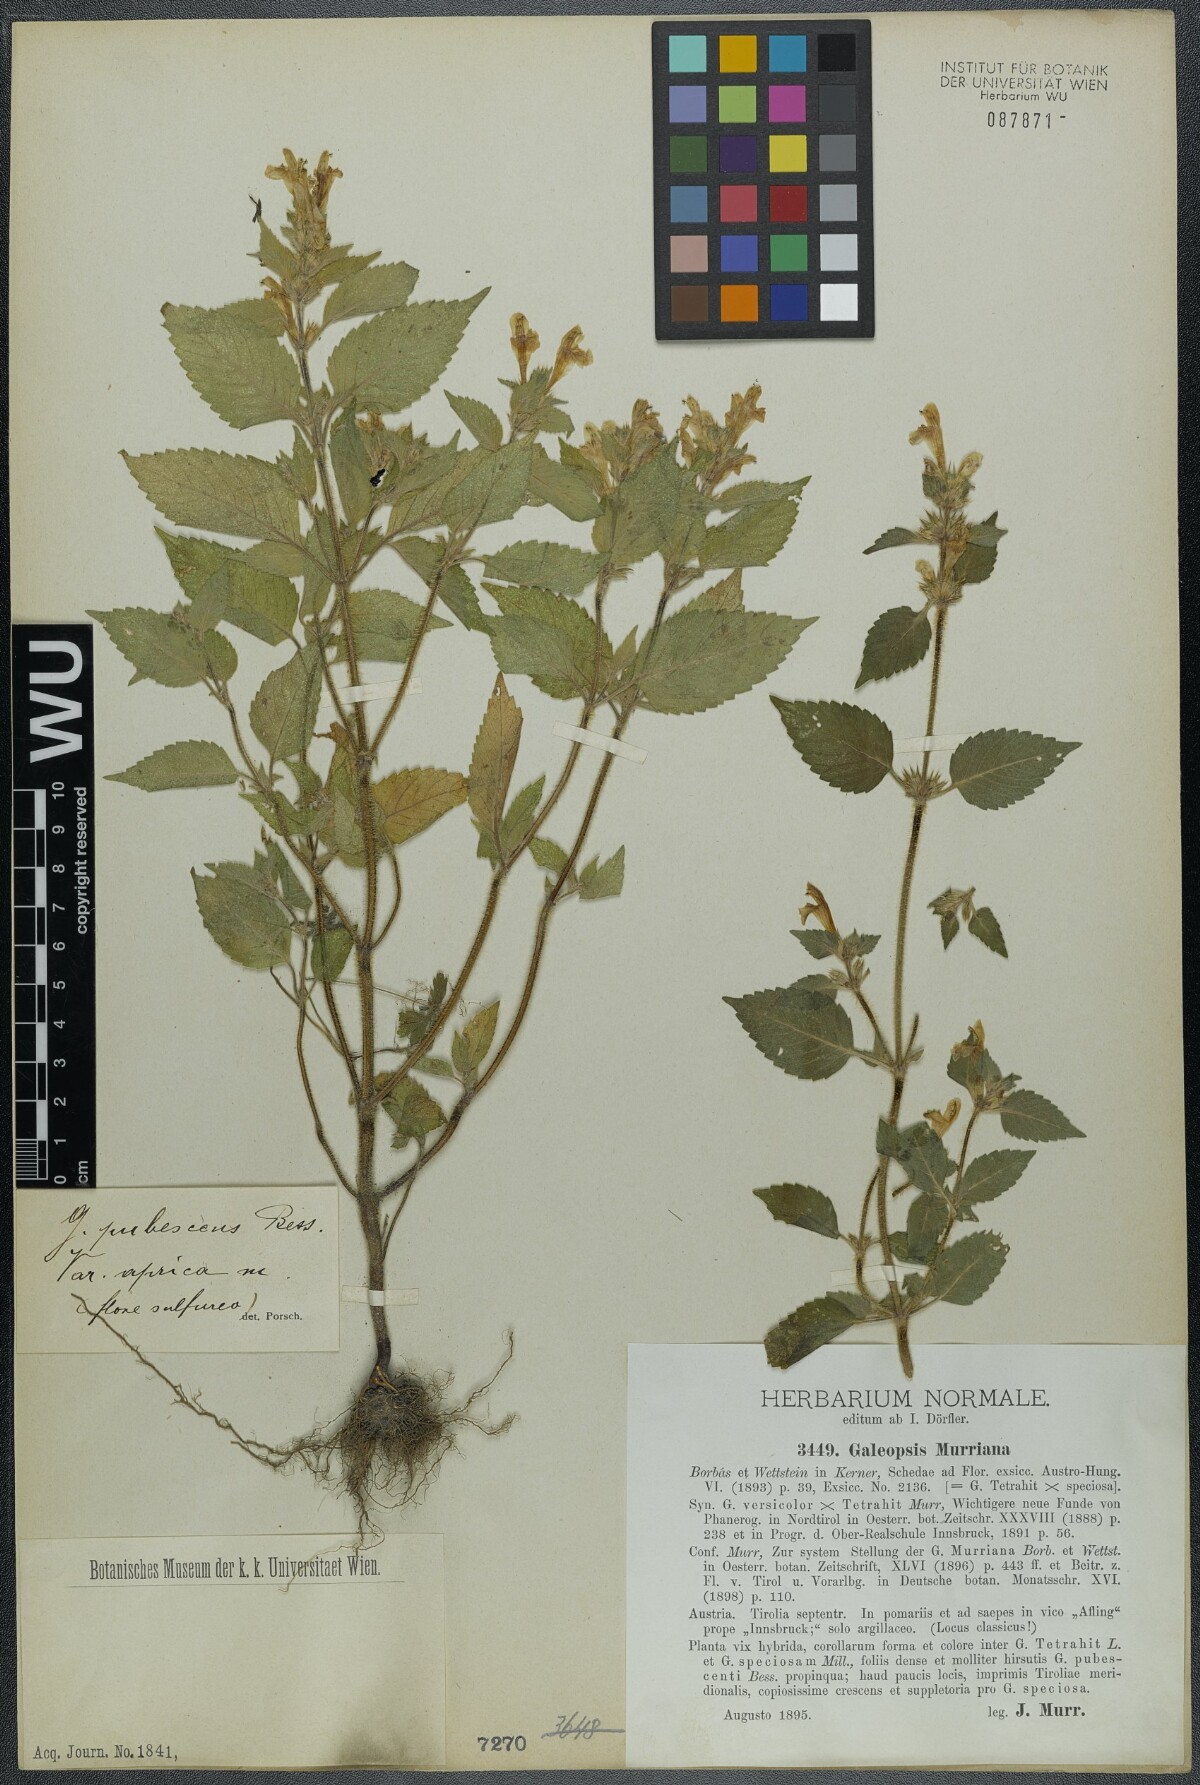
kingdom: Plantae
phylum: Tracheophyta
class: Magnoliopsida
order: Lamiales
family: Lamiaceae
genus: Galeopsis
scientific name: Galeopsis pubescens
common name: Downy hemp-nettle
